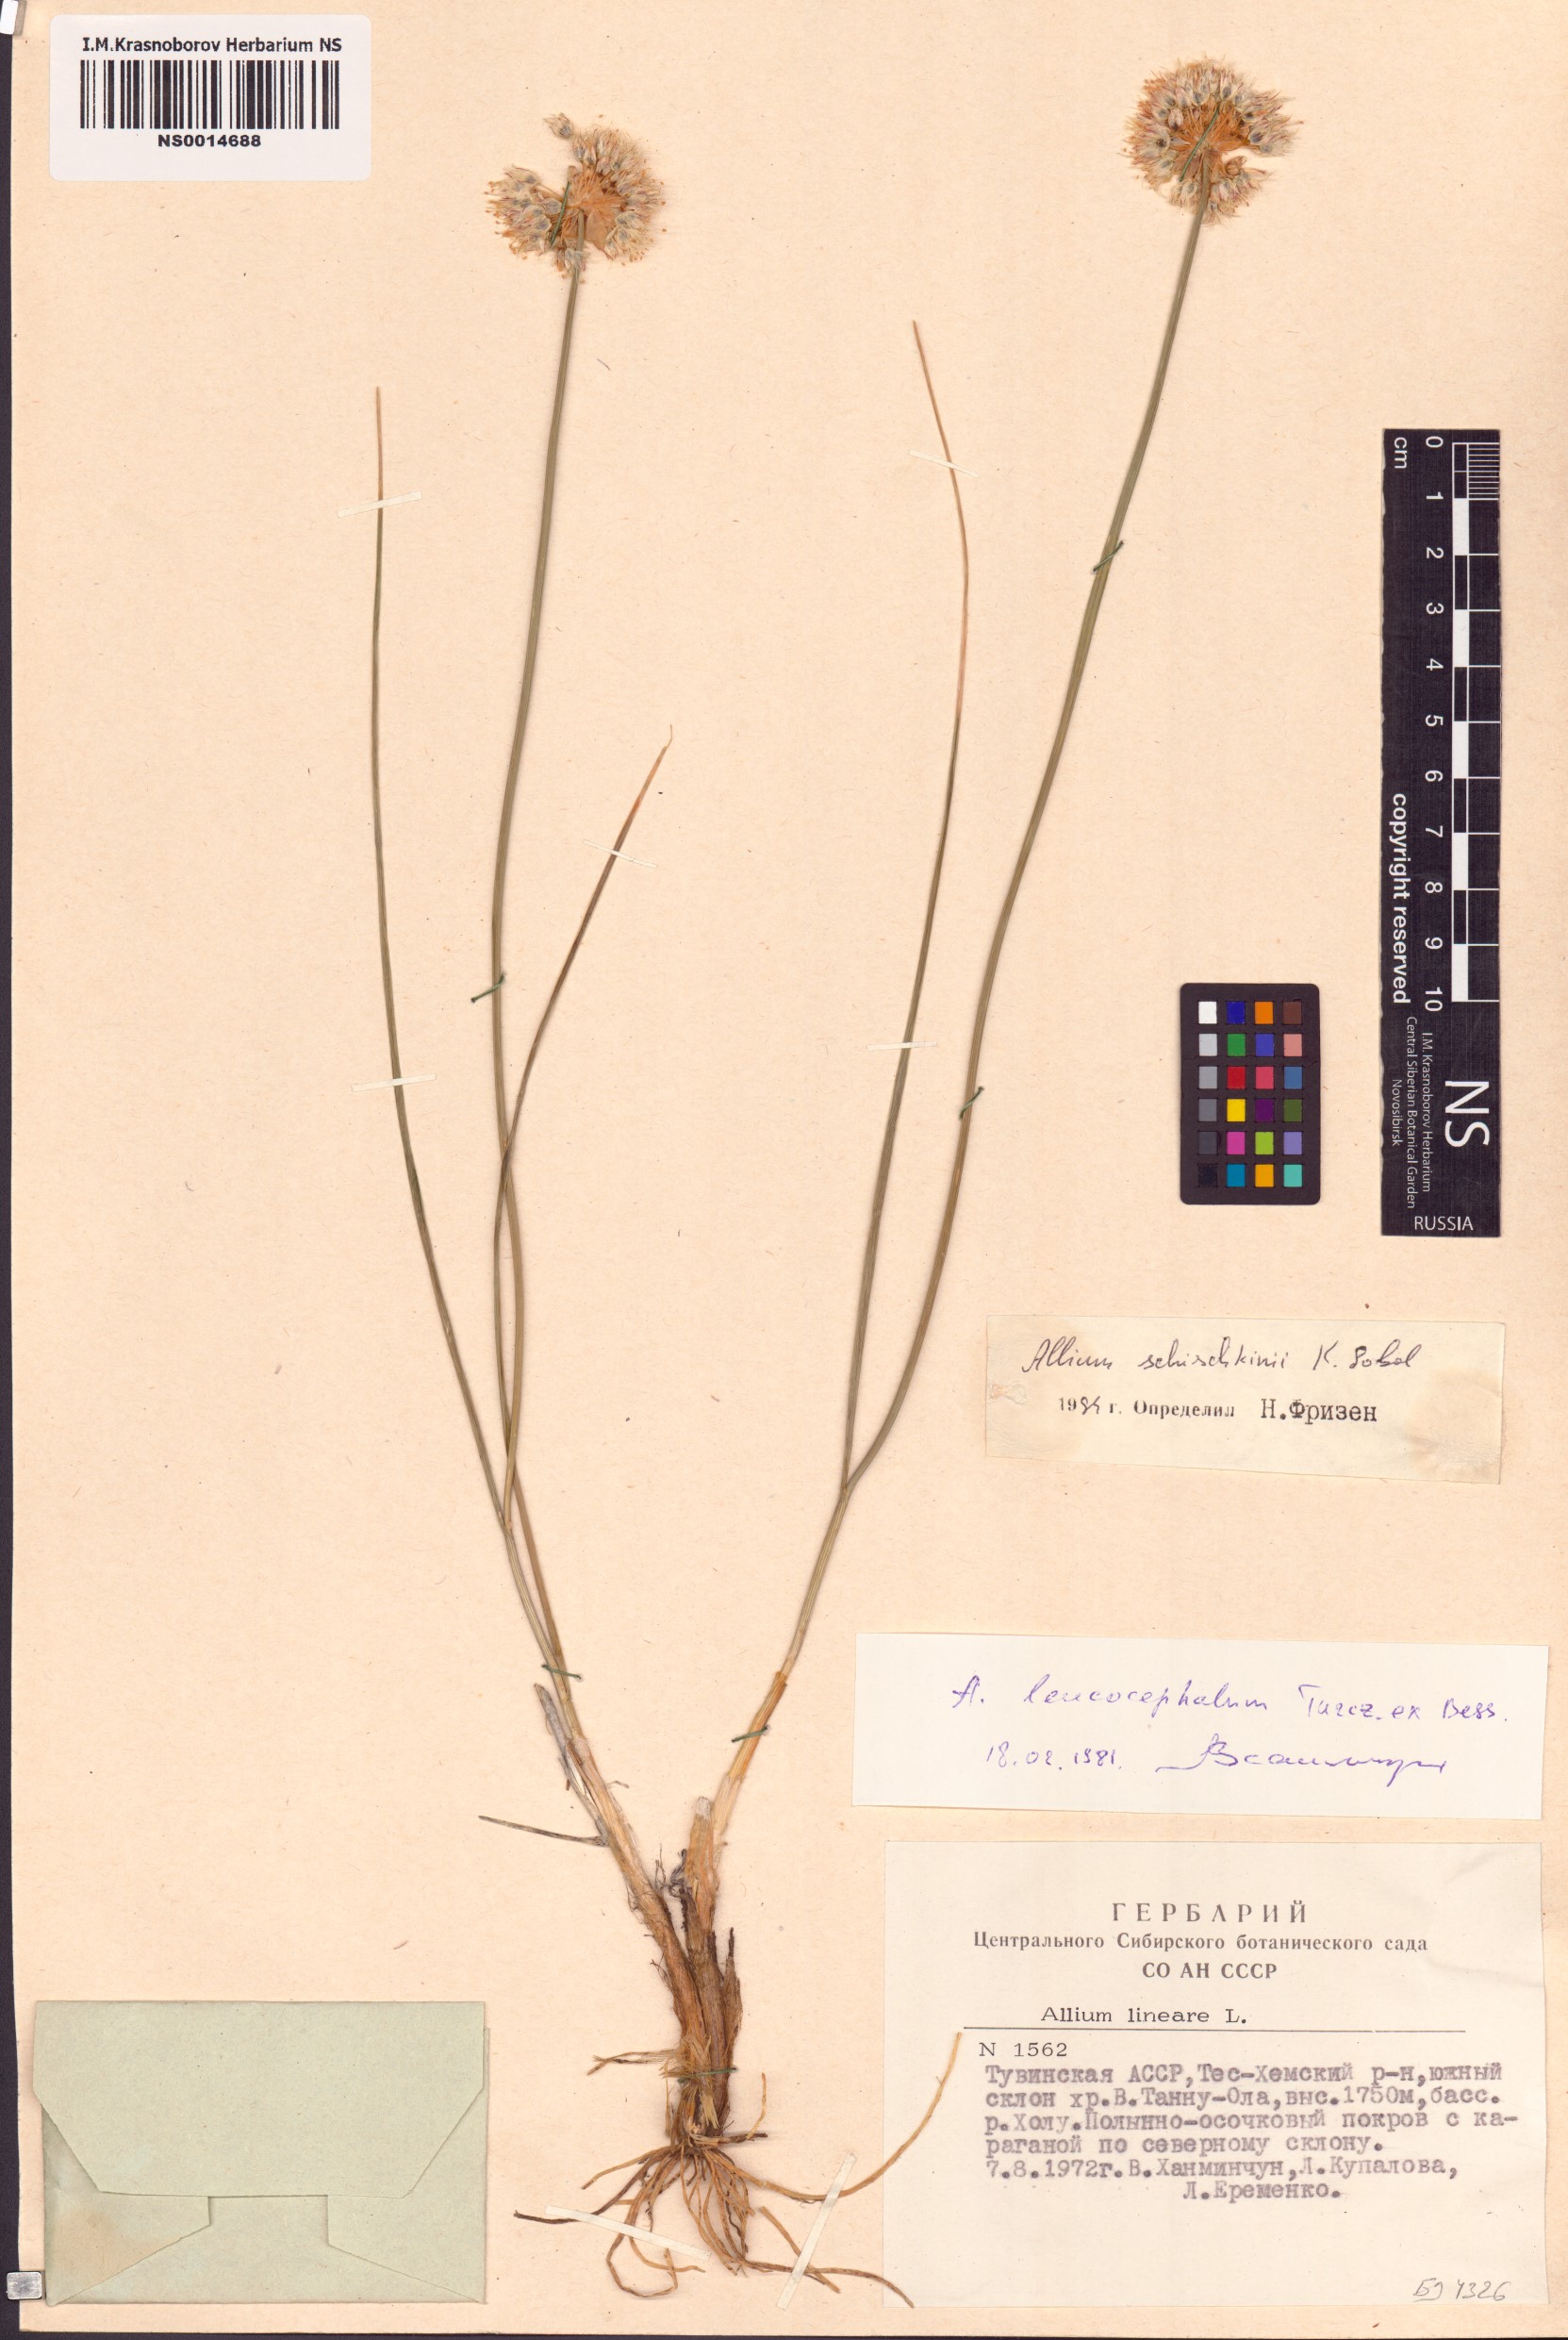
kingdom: Plantae
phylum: Tracheophyta
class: Liliopsida
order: Asparagales
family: Amaryllidaceae
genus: Allium
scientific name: Allium schischkinii
